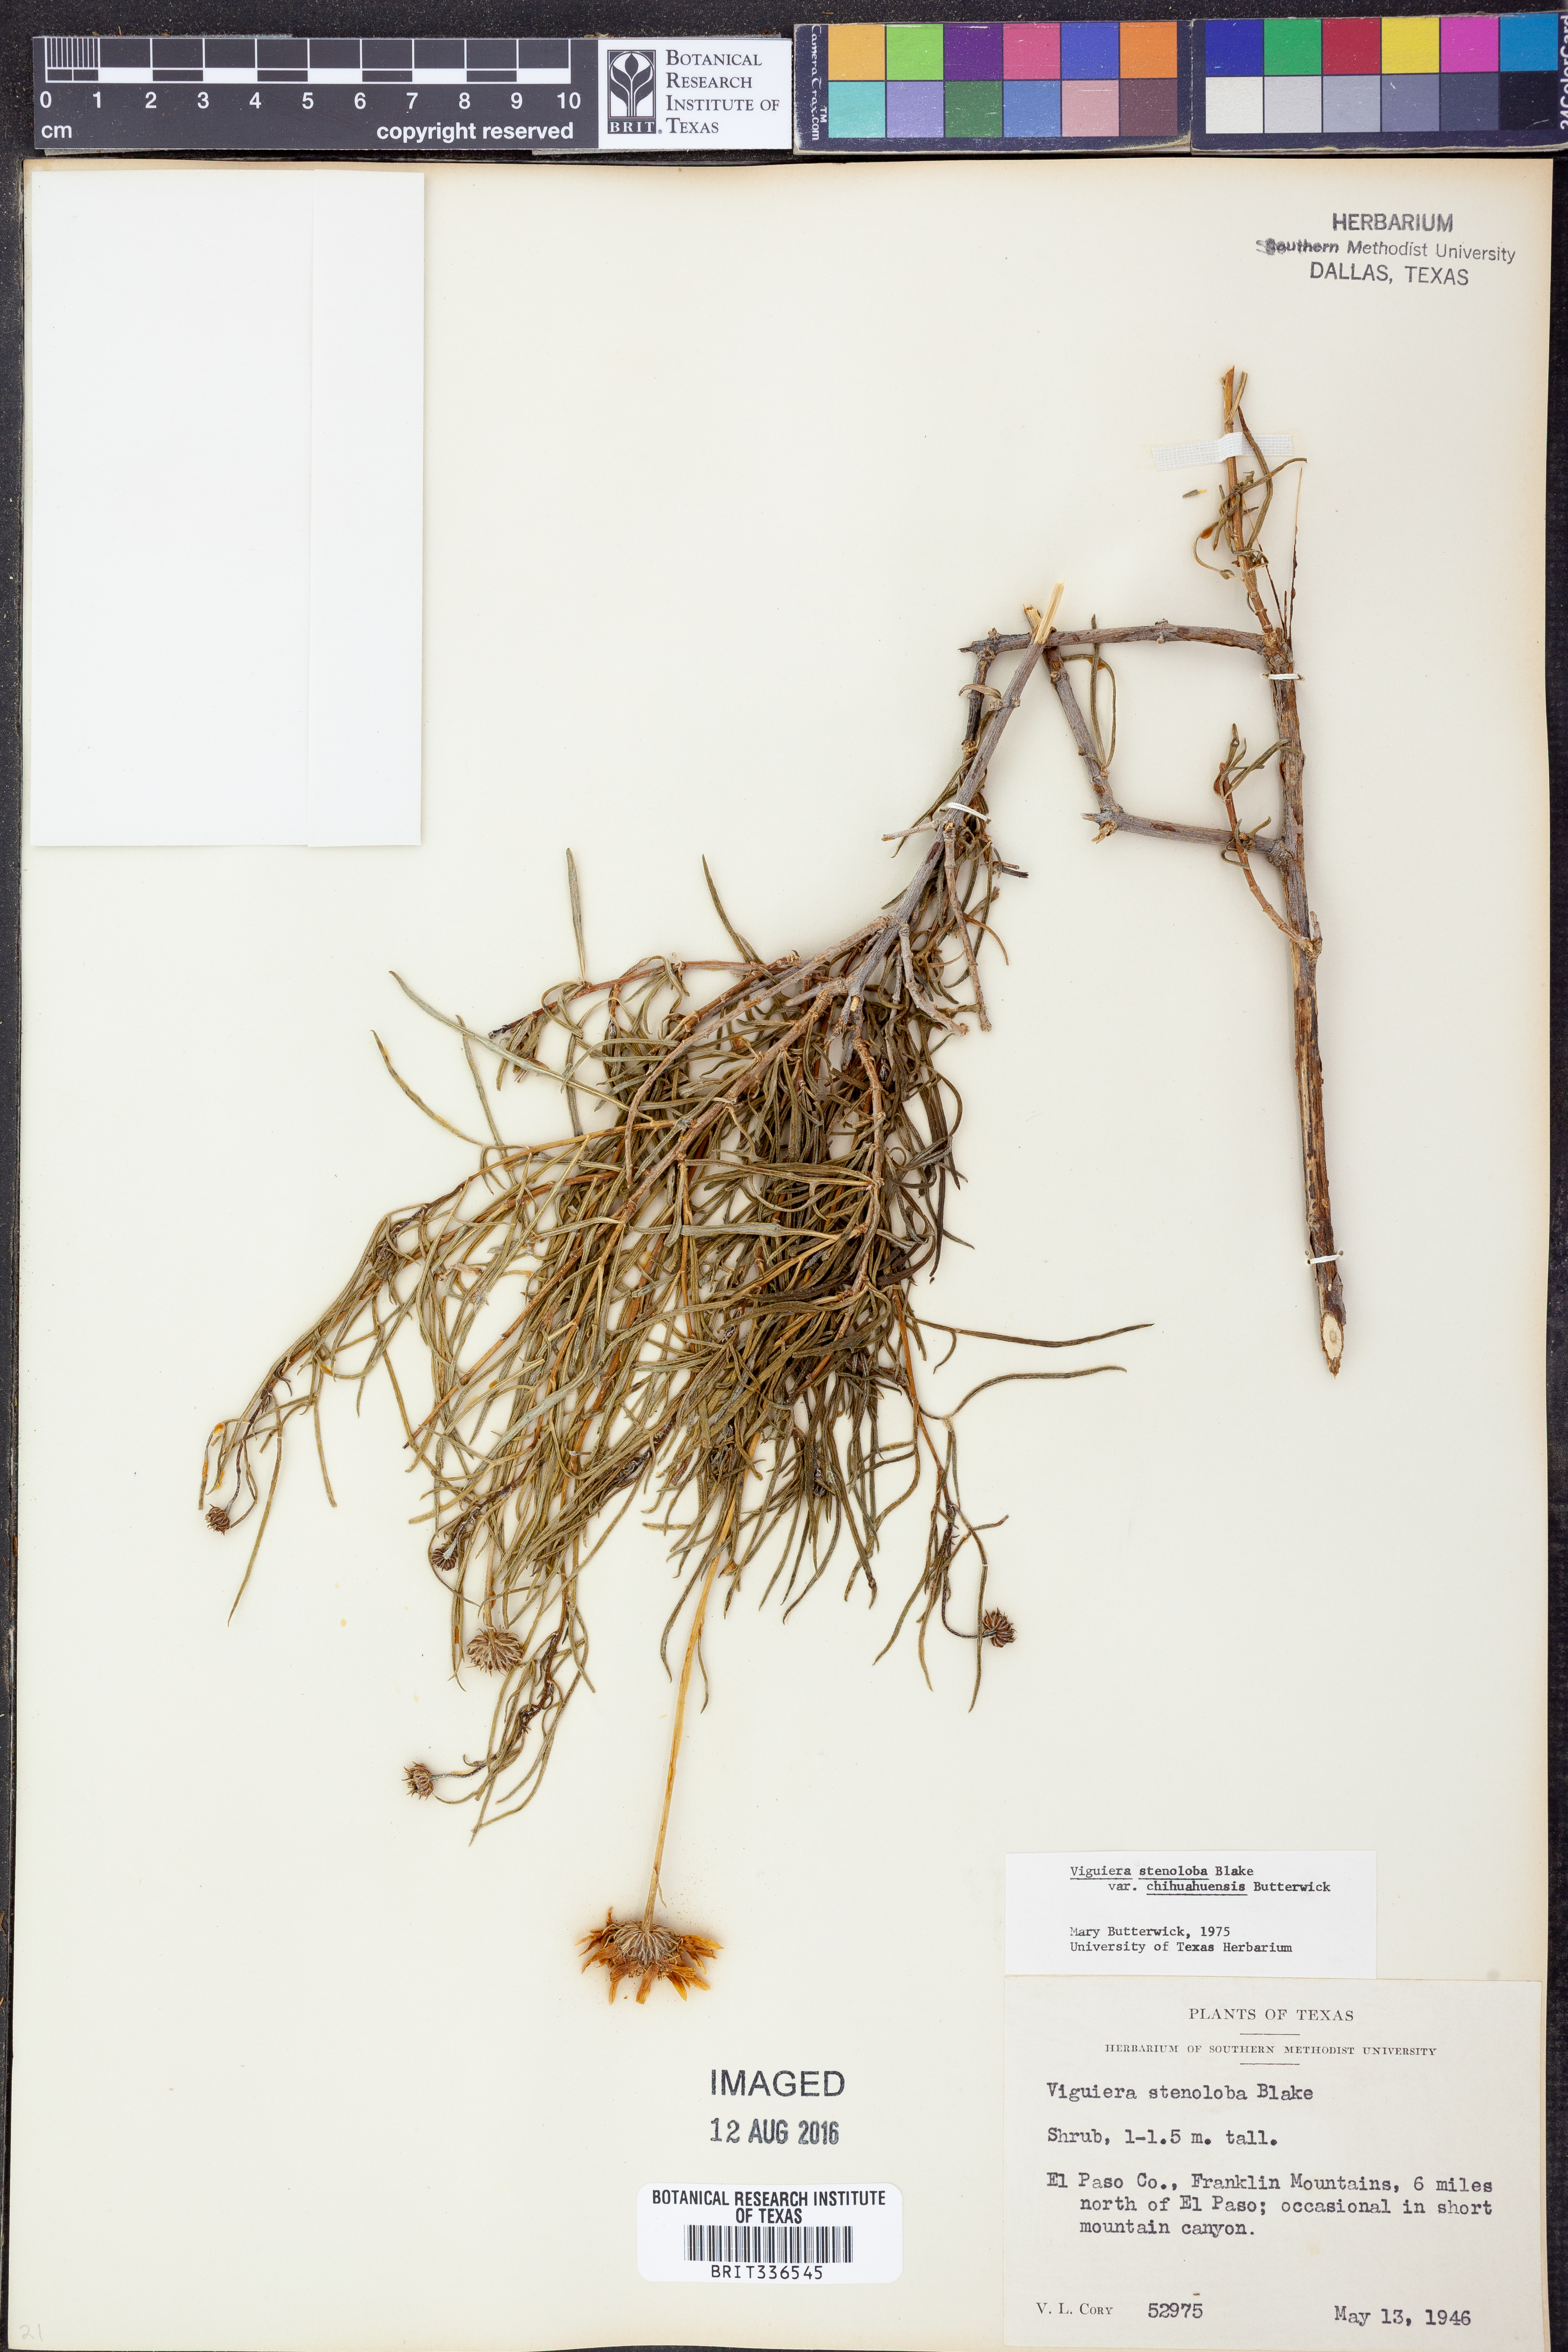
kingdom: Plantae
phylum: Tracheophyta
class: Magnoliopsida
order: Asterales
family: Asteraceae
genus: Sidneya
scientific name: Sidneya tenuifolia
